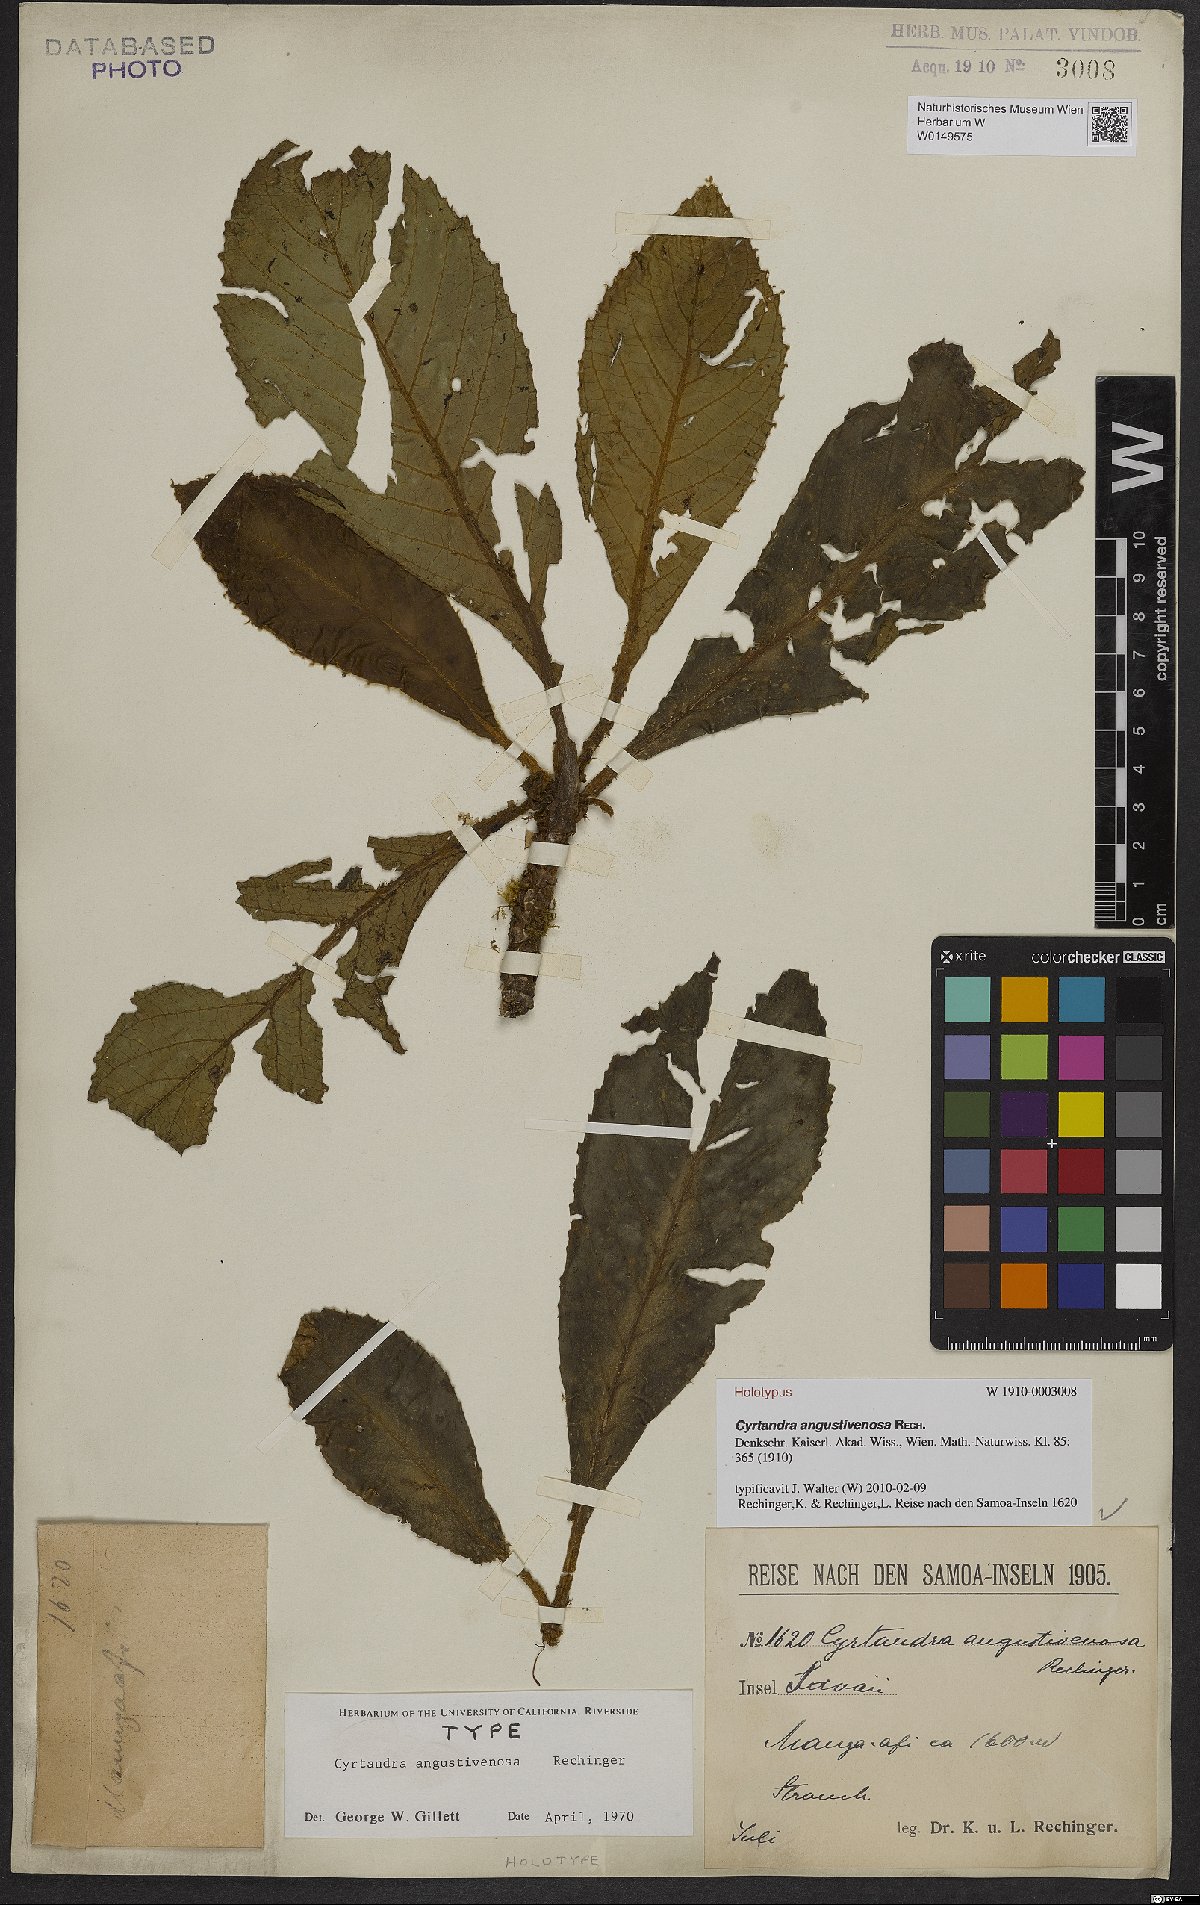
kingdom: Plantae
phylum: Tracheophyta
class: Magnoliopsida
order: Lamiales
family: Gesneriaceae
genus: Cyrtandra
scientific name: Cyrtandra angustivenosa
